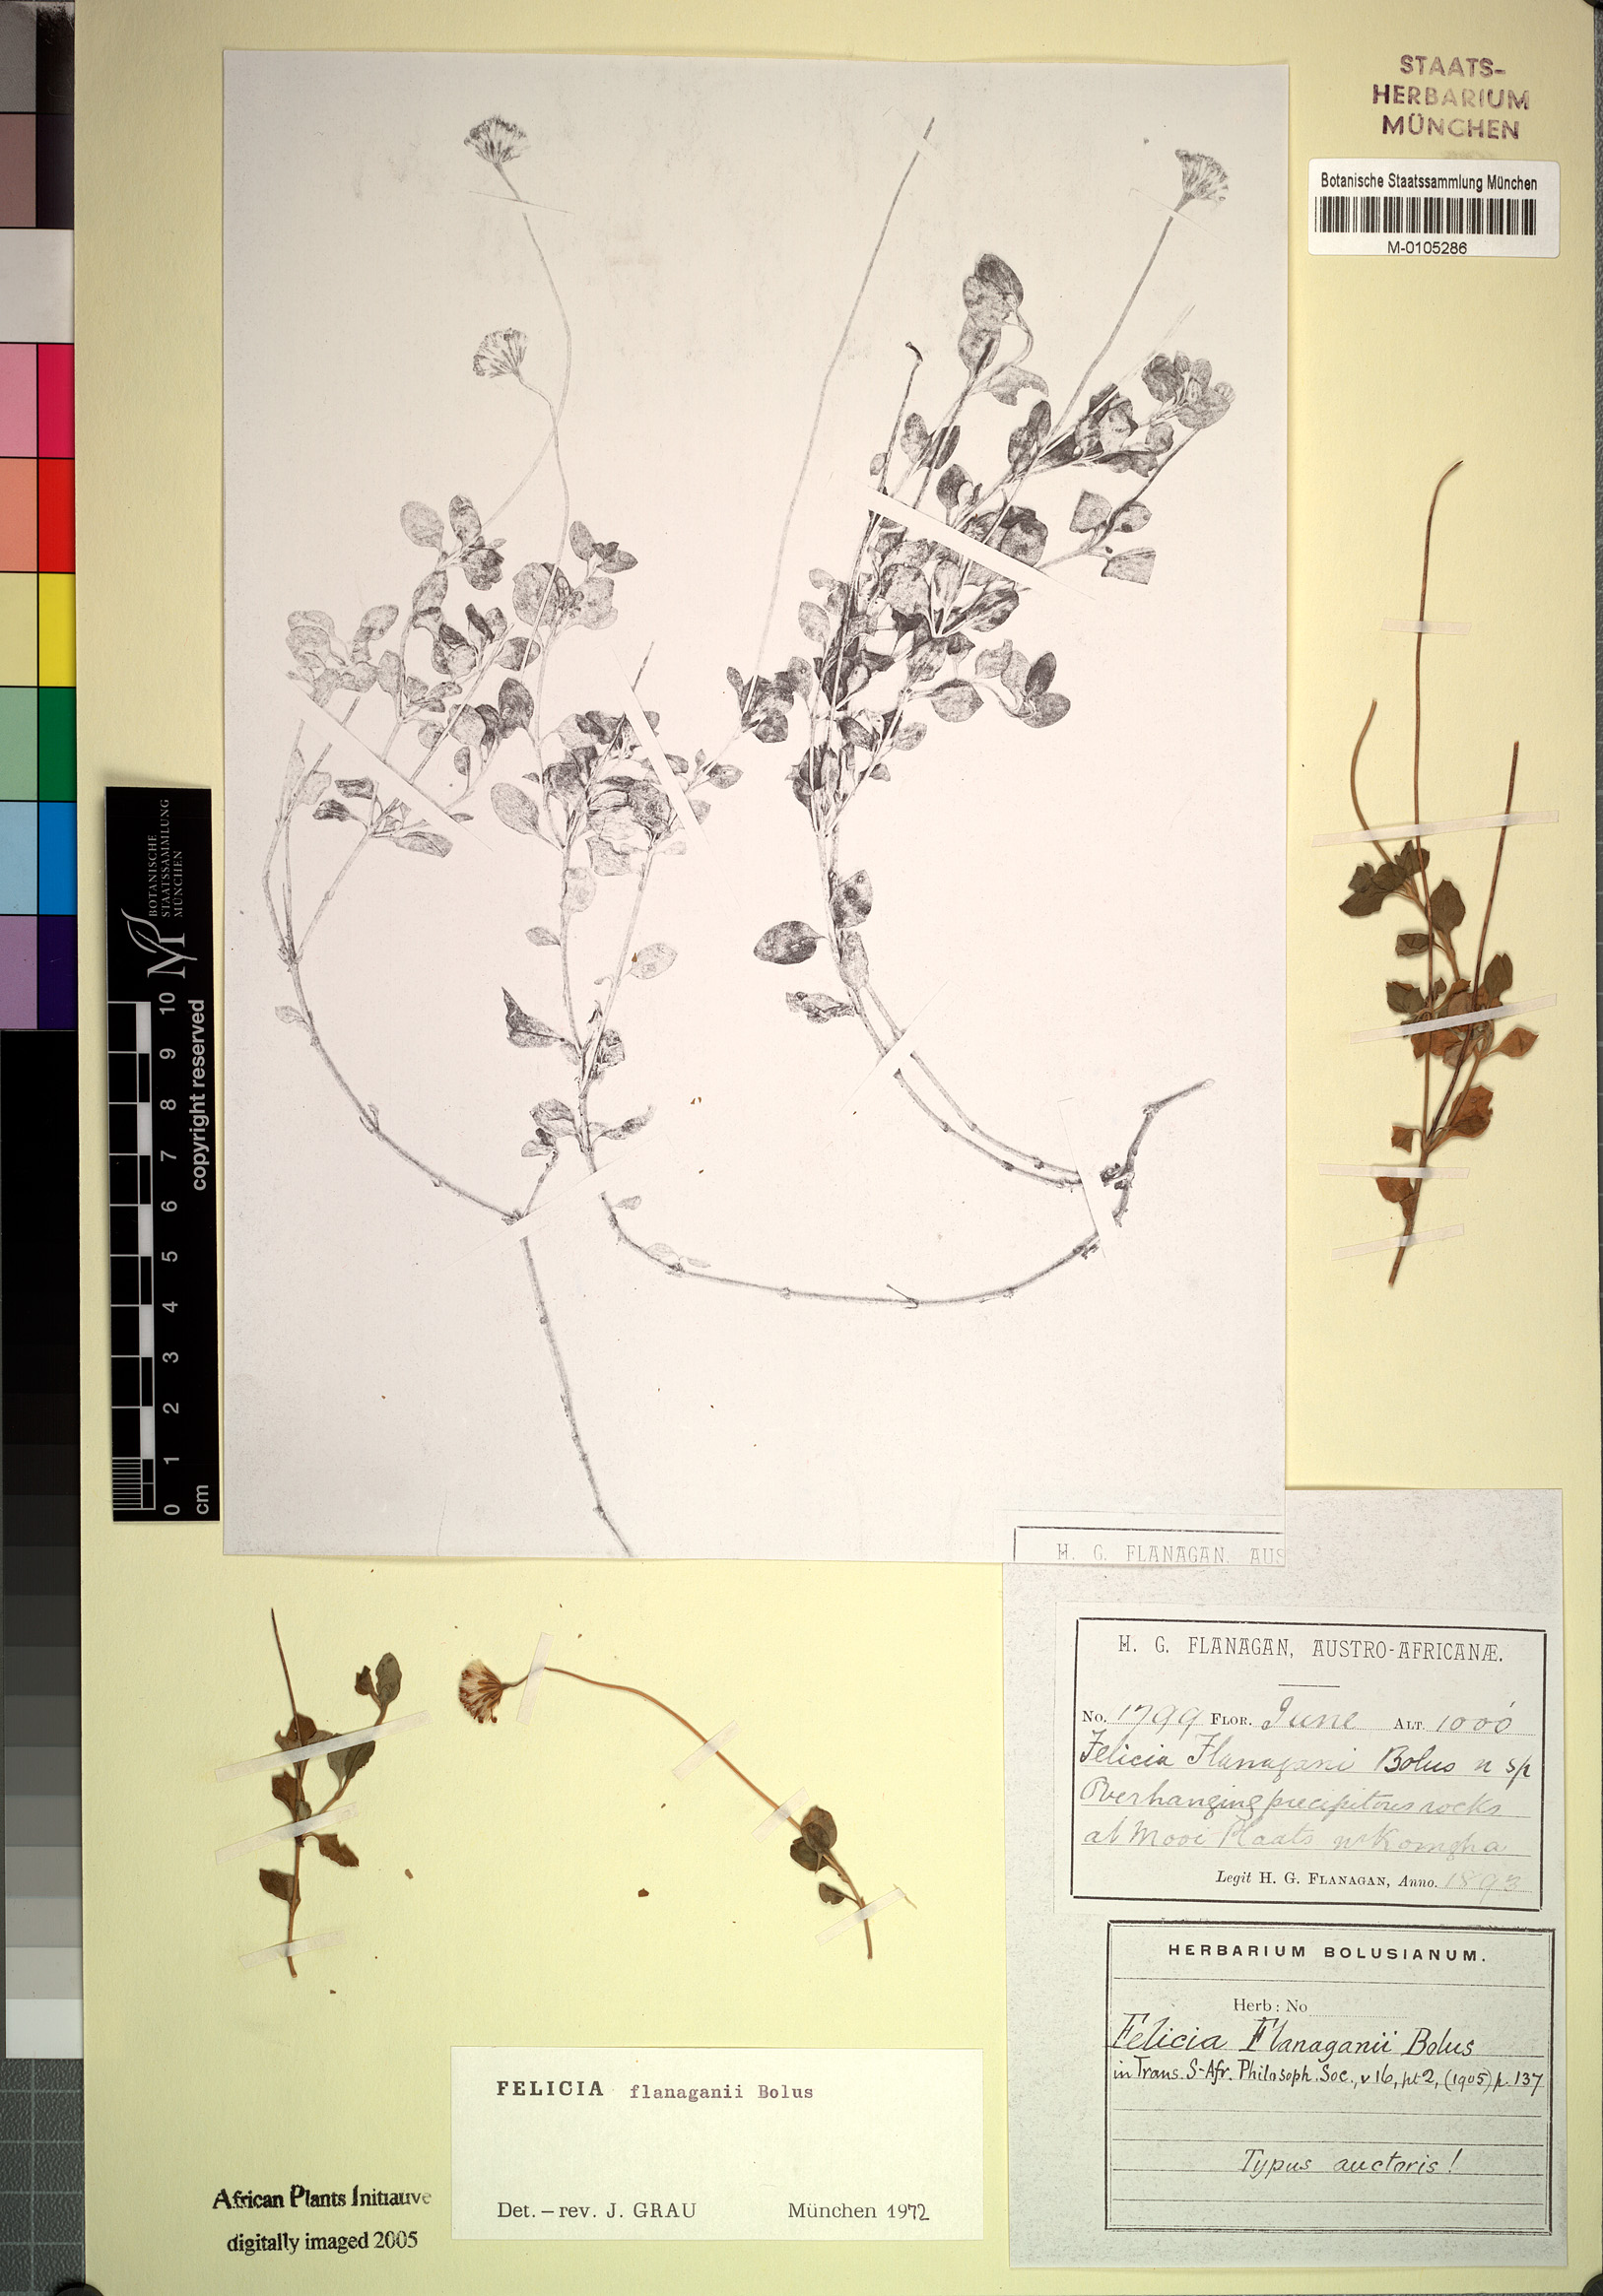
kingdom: Plantae
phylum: Tracheophyta
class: Magnoliopsida
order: Asterales
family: Asteraceae
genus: Felicia
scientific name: Felicia flanaganii
